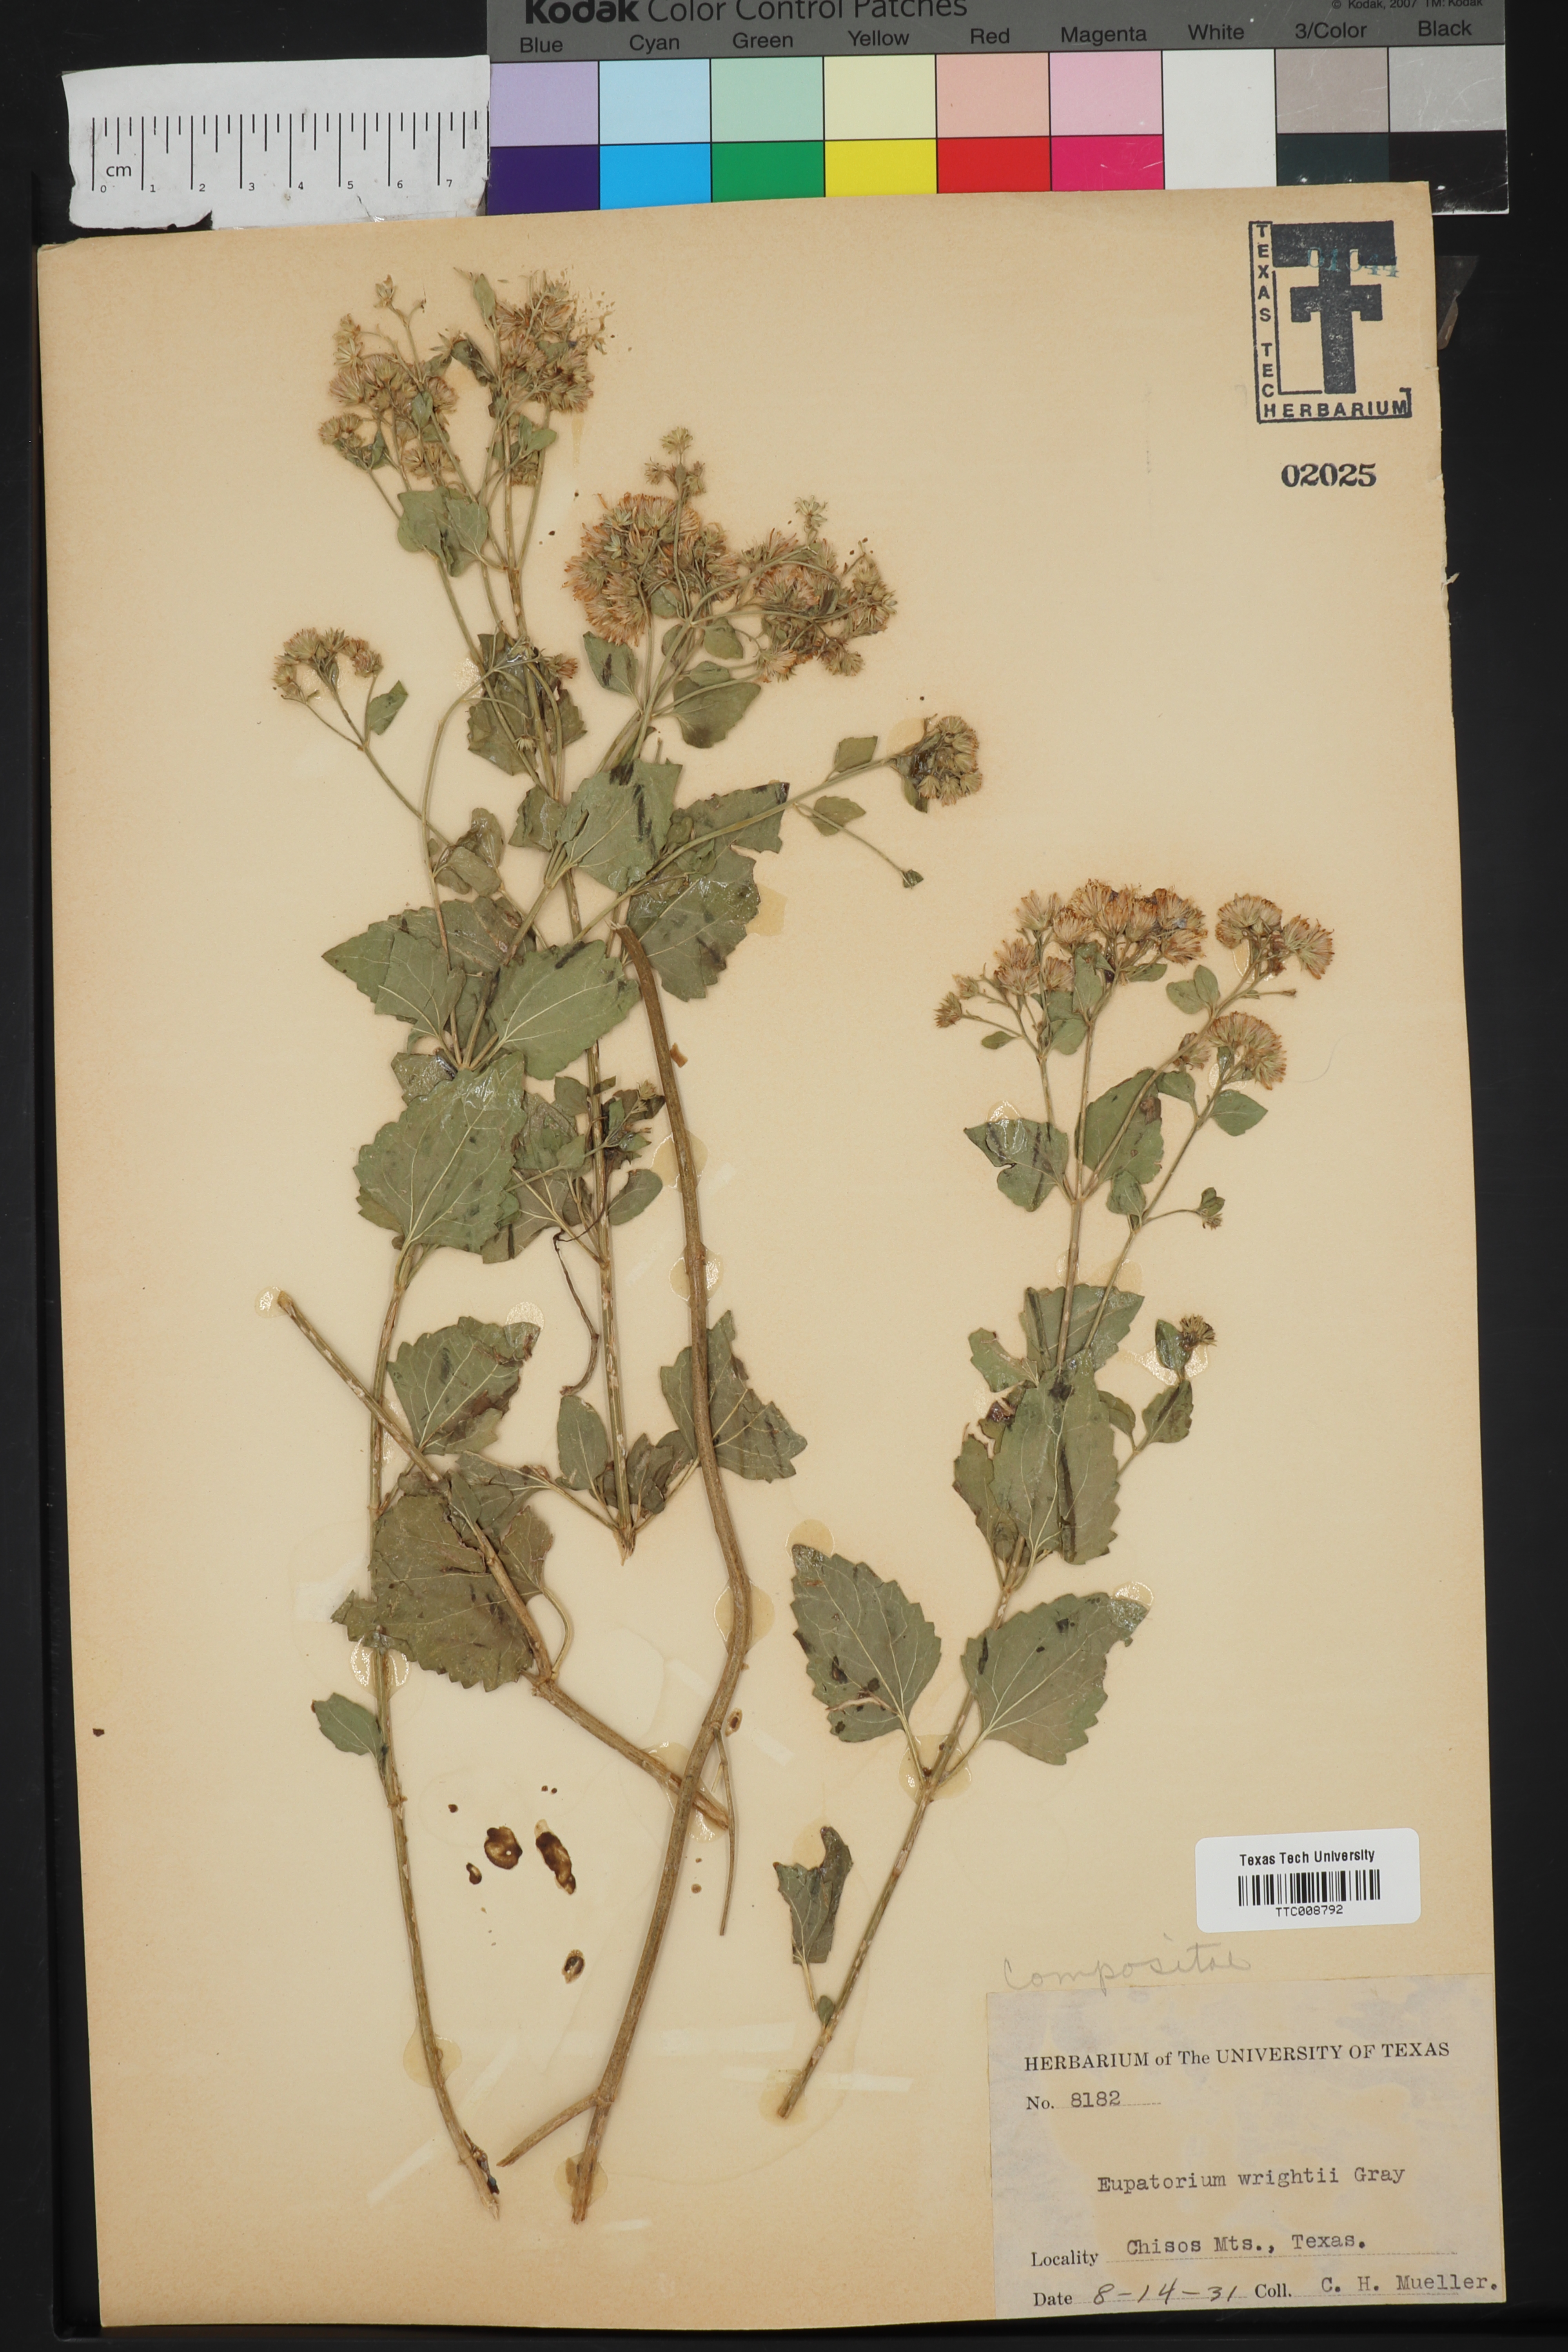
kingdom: Plantae
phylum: Tracheophyta
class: Magnoliopsida
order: Asterales
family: Asteraceae
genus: Ageratina
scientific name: Ageratina wrightii
